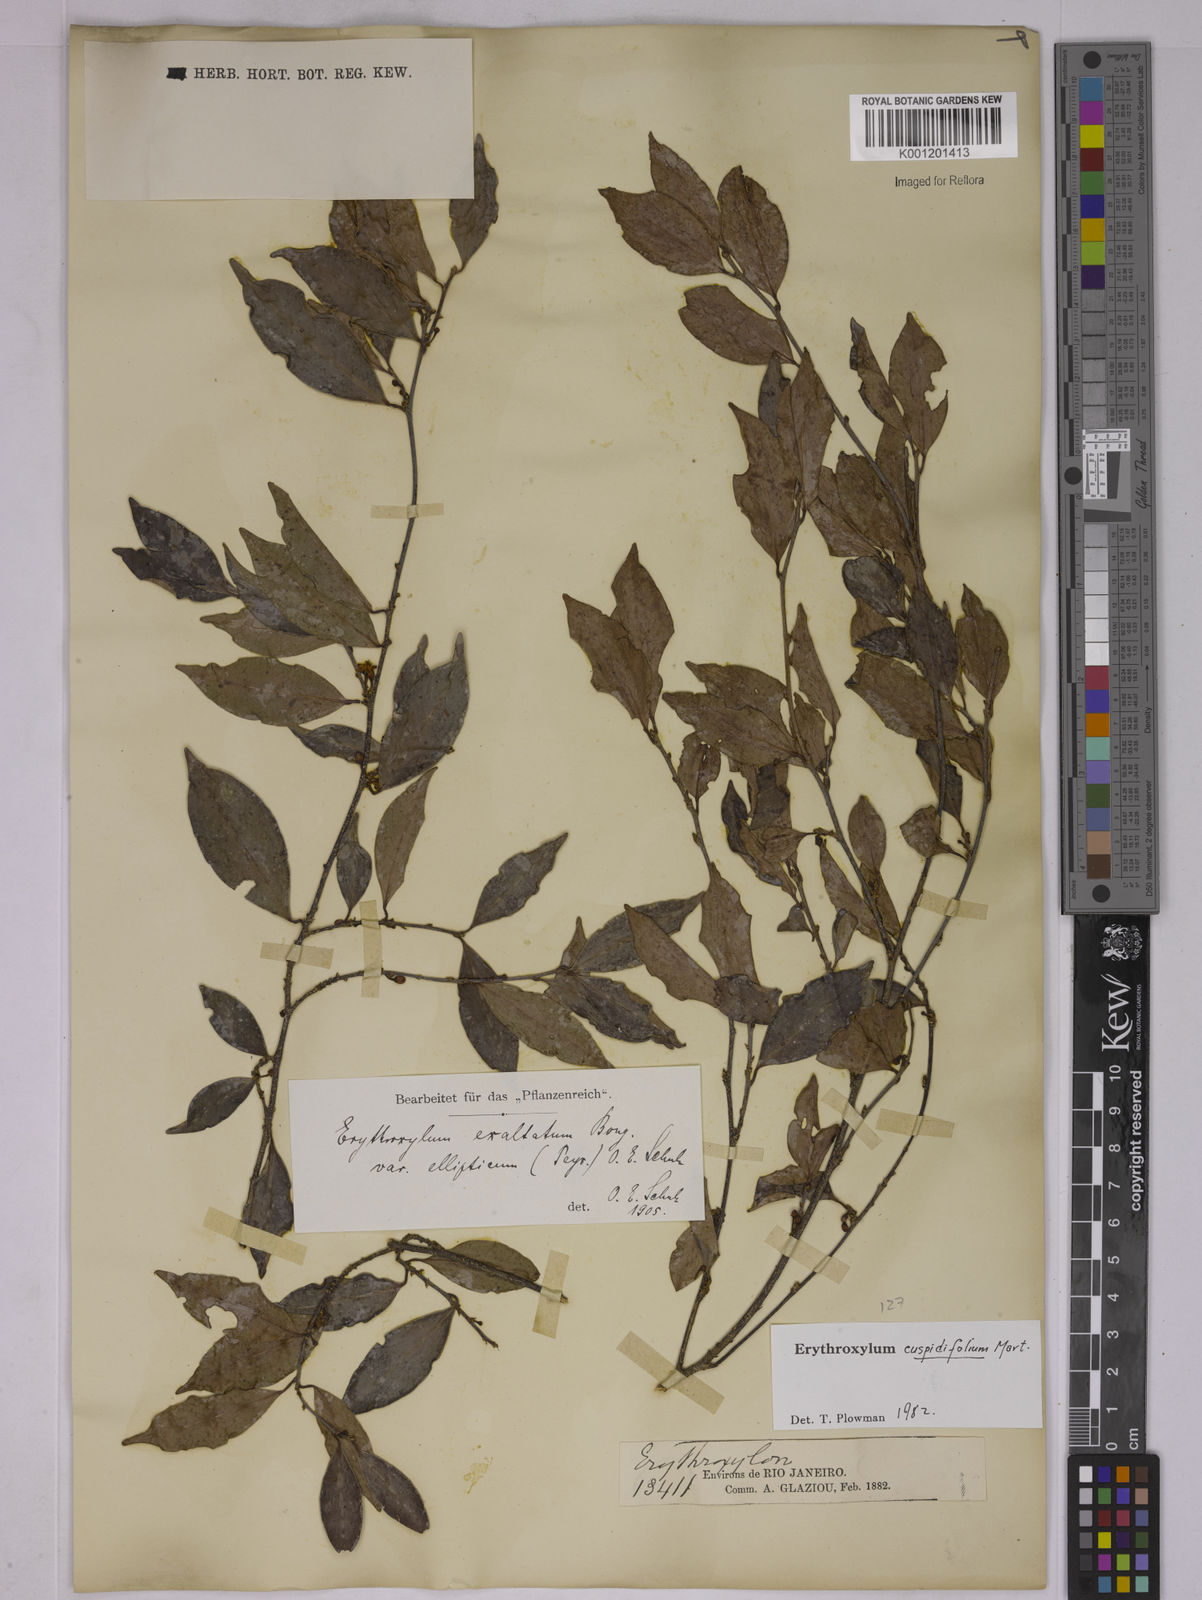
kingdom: Plantae
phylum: Tracheophyta
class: Magnoliopsida
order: Malpighiales
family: Erythroxylaceae
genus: Erythroxylum
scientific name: Erythroxylum cuspidifolium
